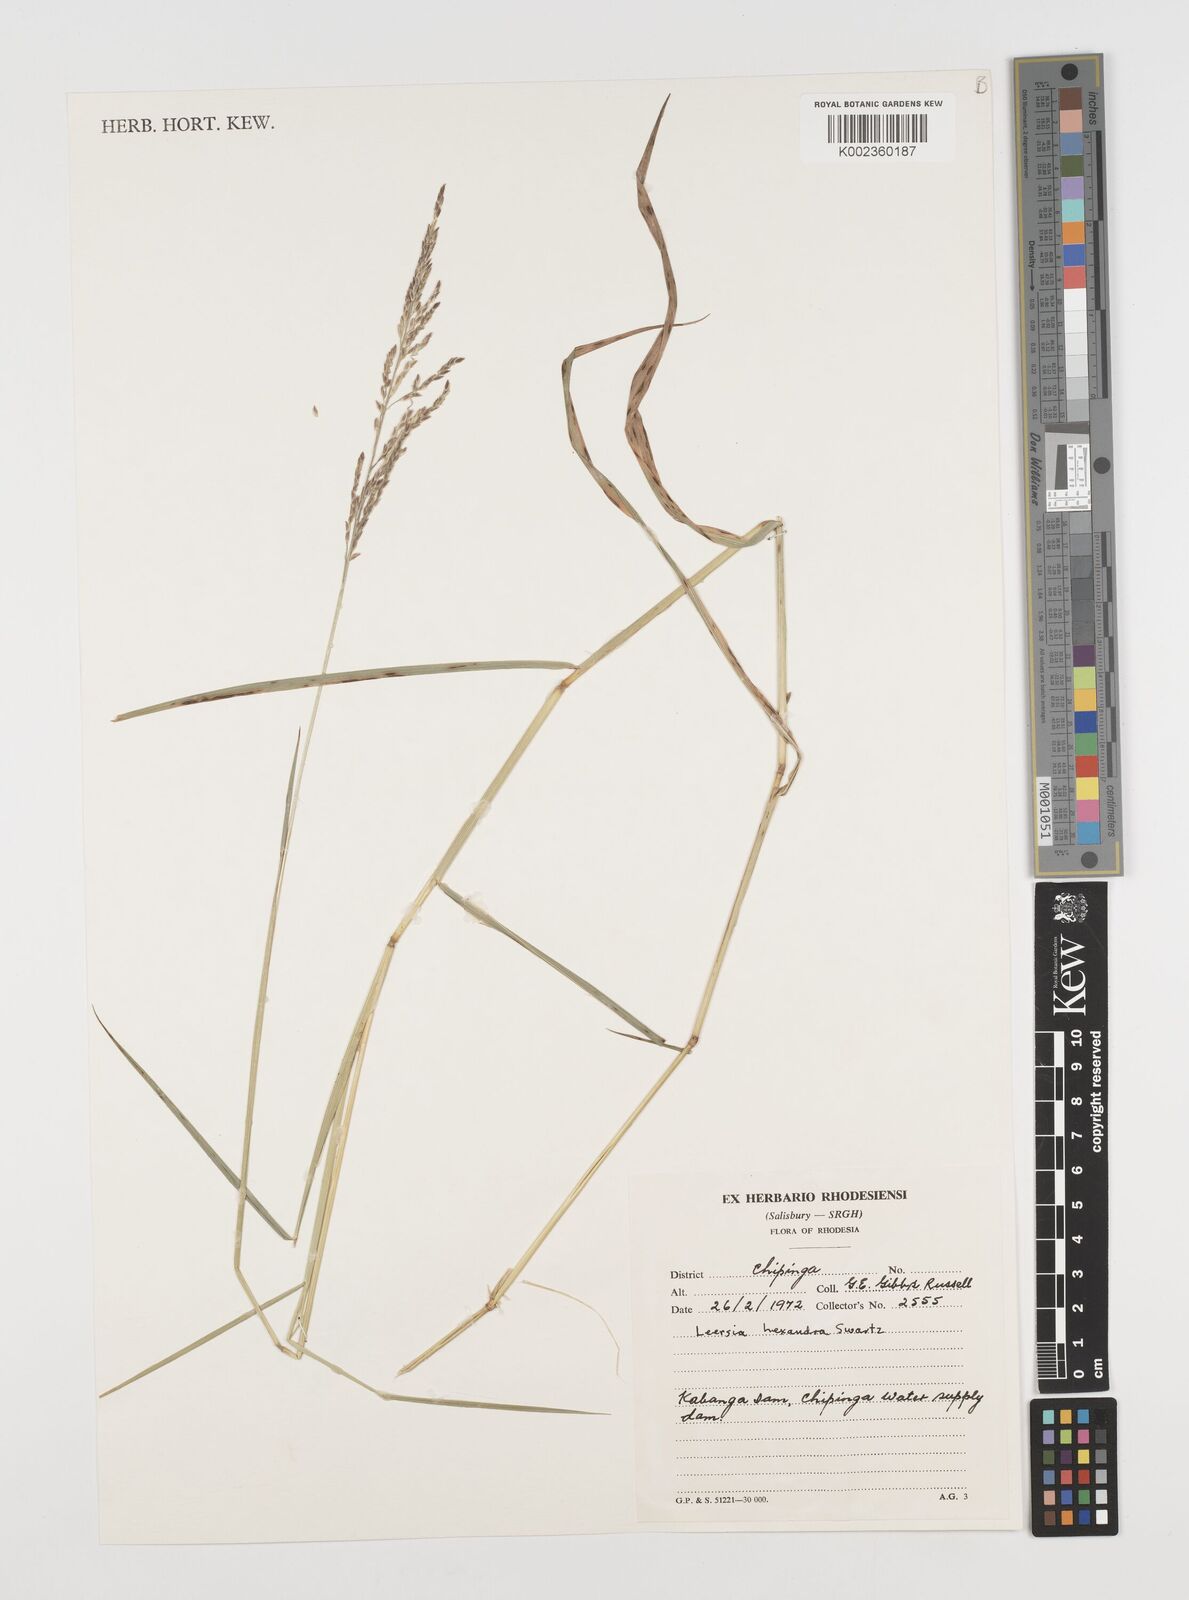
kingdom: Plantae
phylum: Tracheophyta
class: Liliopsida
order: Poales
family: Poaceae
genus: Leersia
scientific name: Leersia hexandra
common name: Southern cut grass
